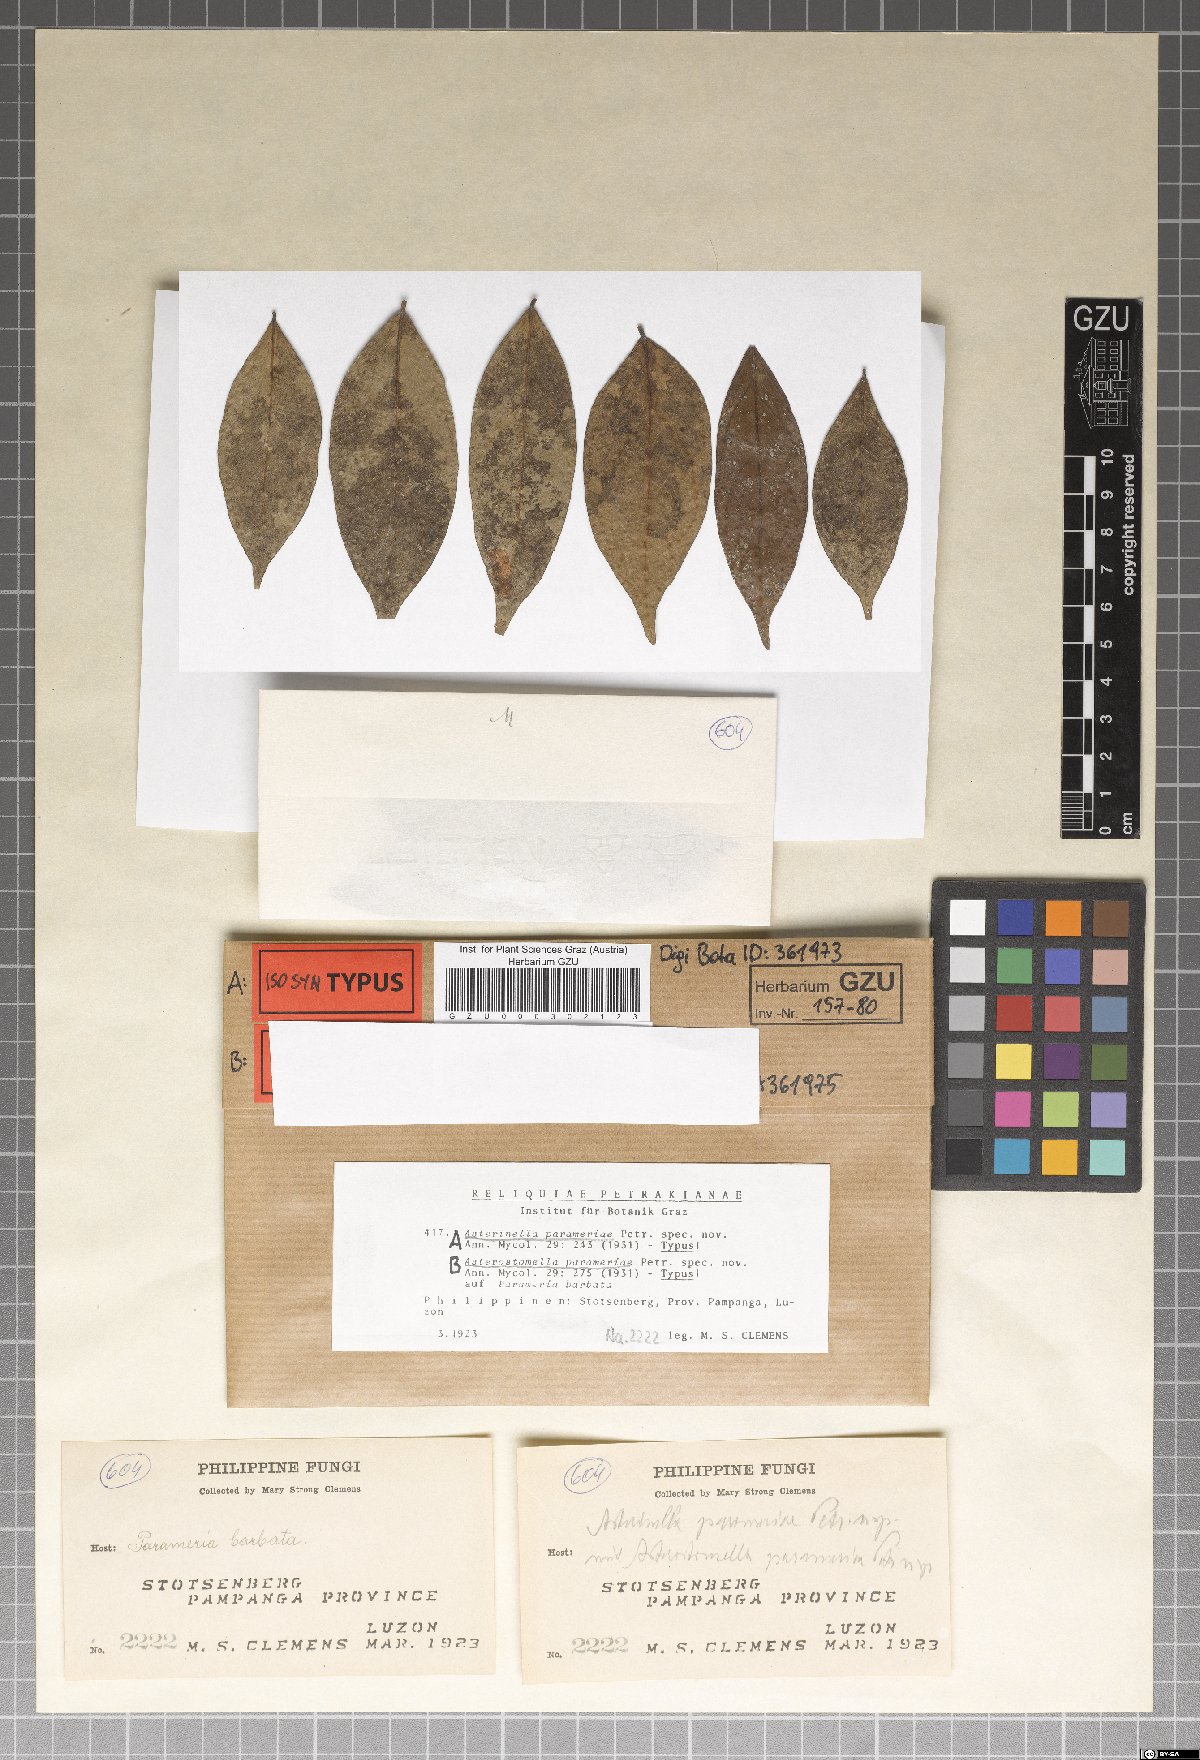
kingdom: Fungi
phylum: Ascomycota
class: Dothideomycetes
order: Microthyriales
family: Microthyriaceae
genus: Asterinella
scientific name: Asterinella parameriae
